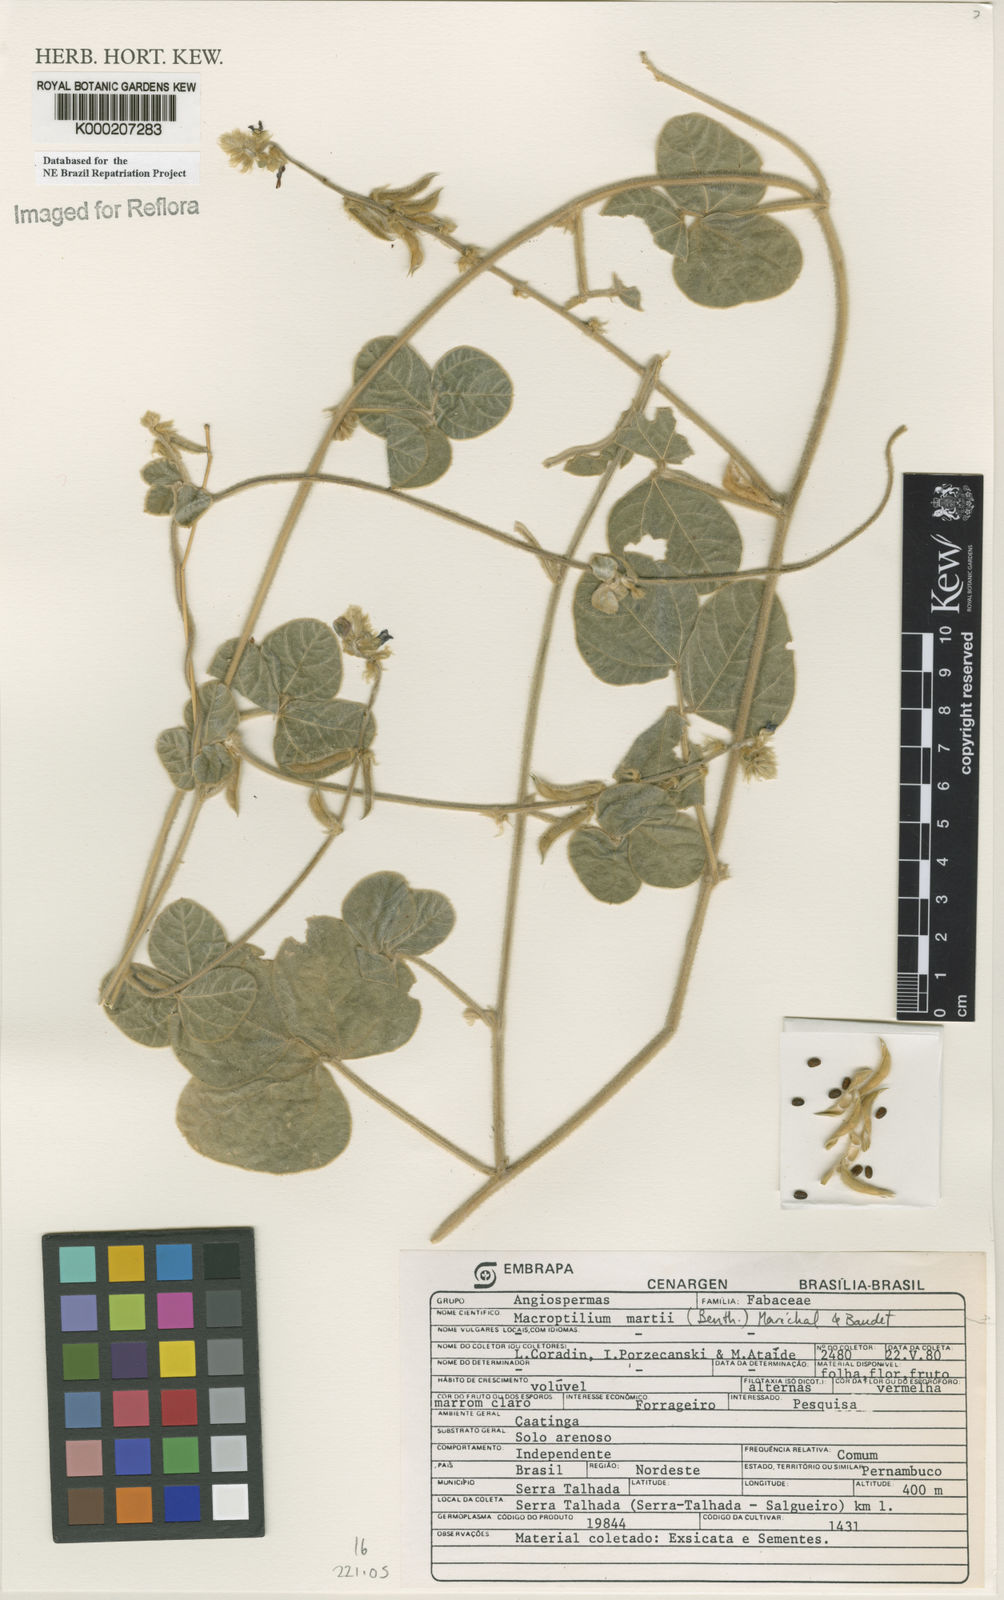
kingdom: Plantae
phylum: Tracheophyta
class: Magnoliopsida
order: Fabales
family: Fabaceae
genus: Macroptilium
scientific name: Macroptilium
